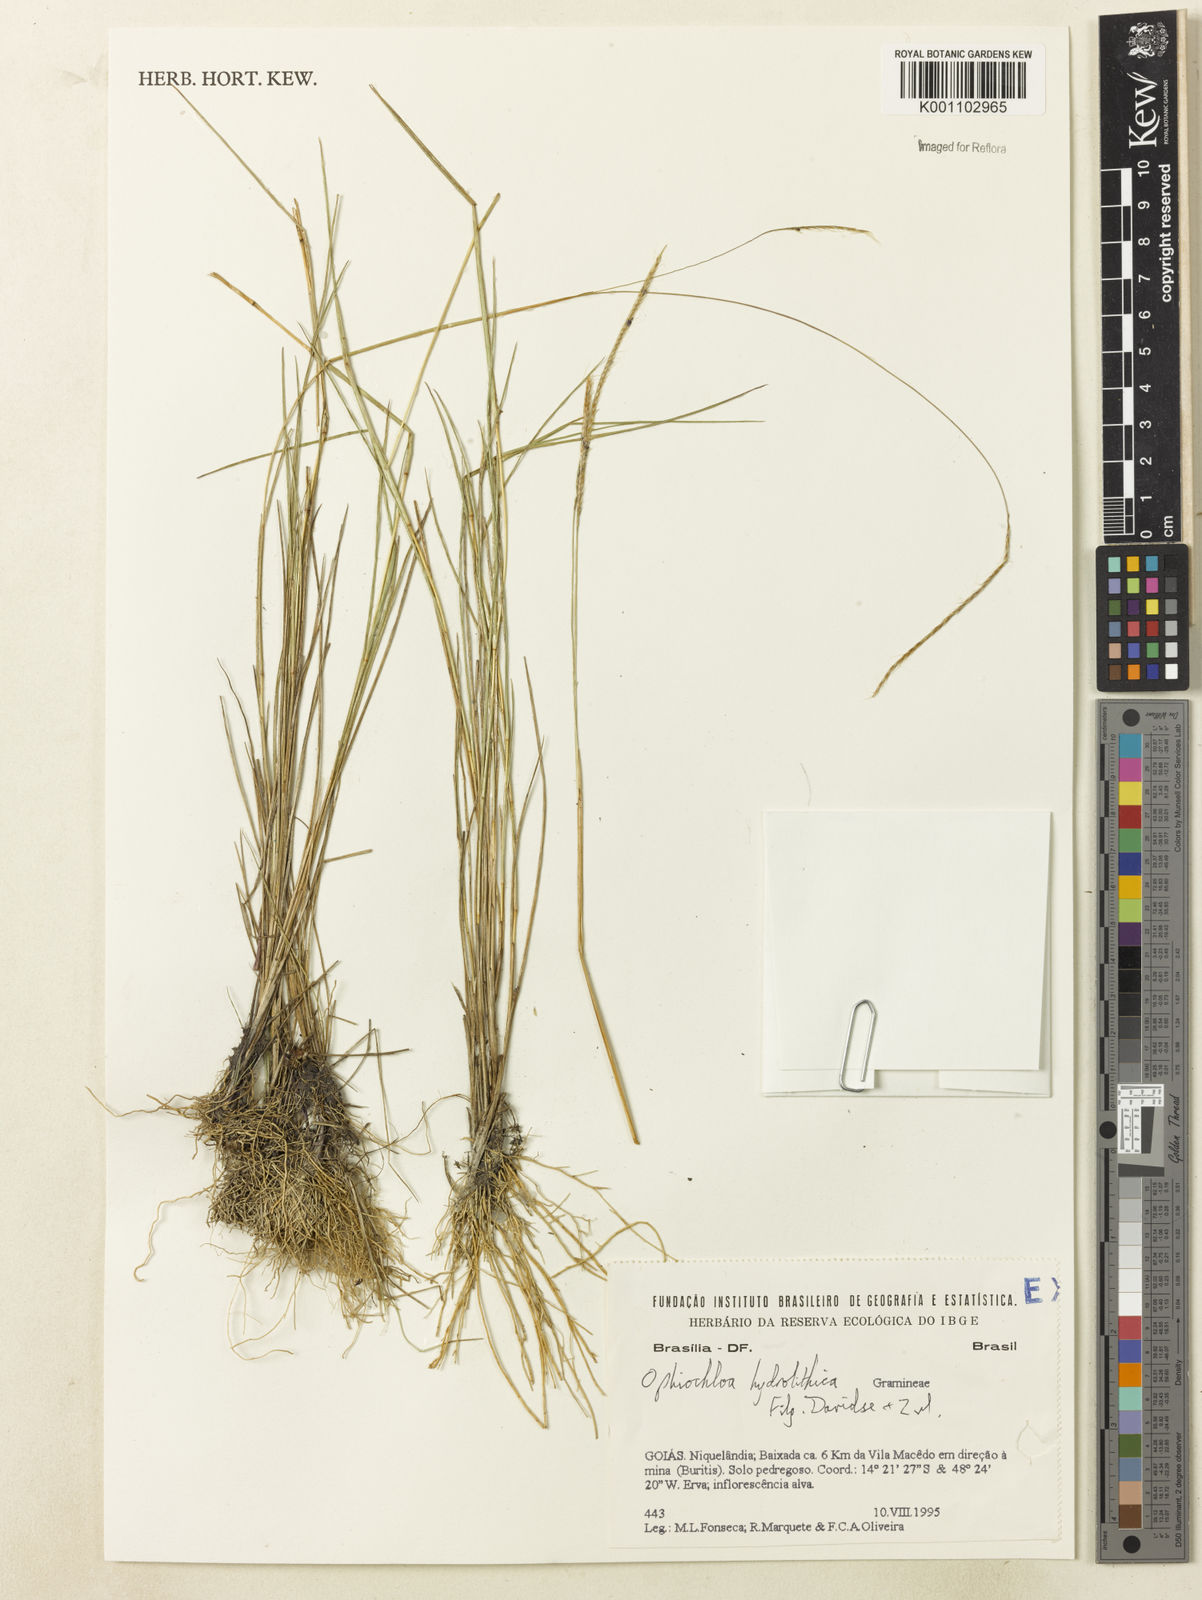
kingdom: Plantae
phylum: Tracheophyta
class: Liliopsida
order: Poales
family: Poaceae
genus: Axonopus
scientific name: Axonopus hydrolithicus
